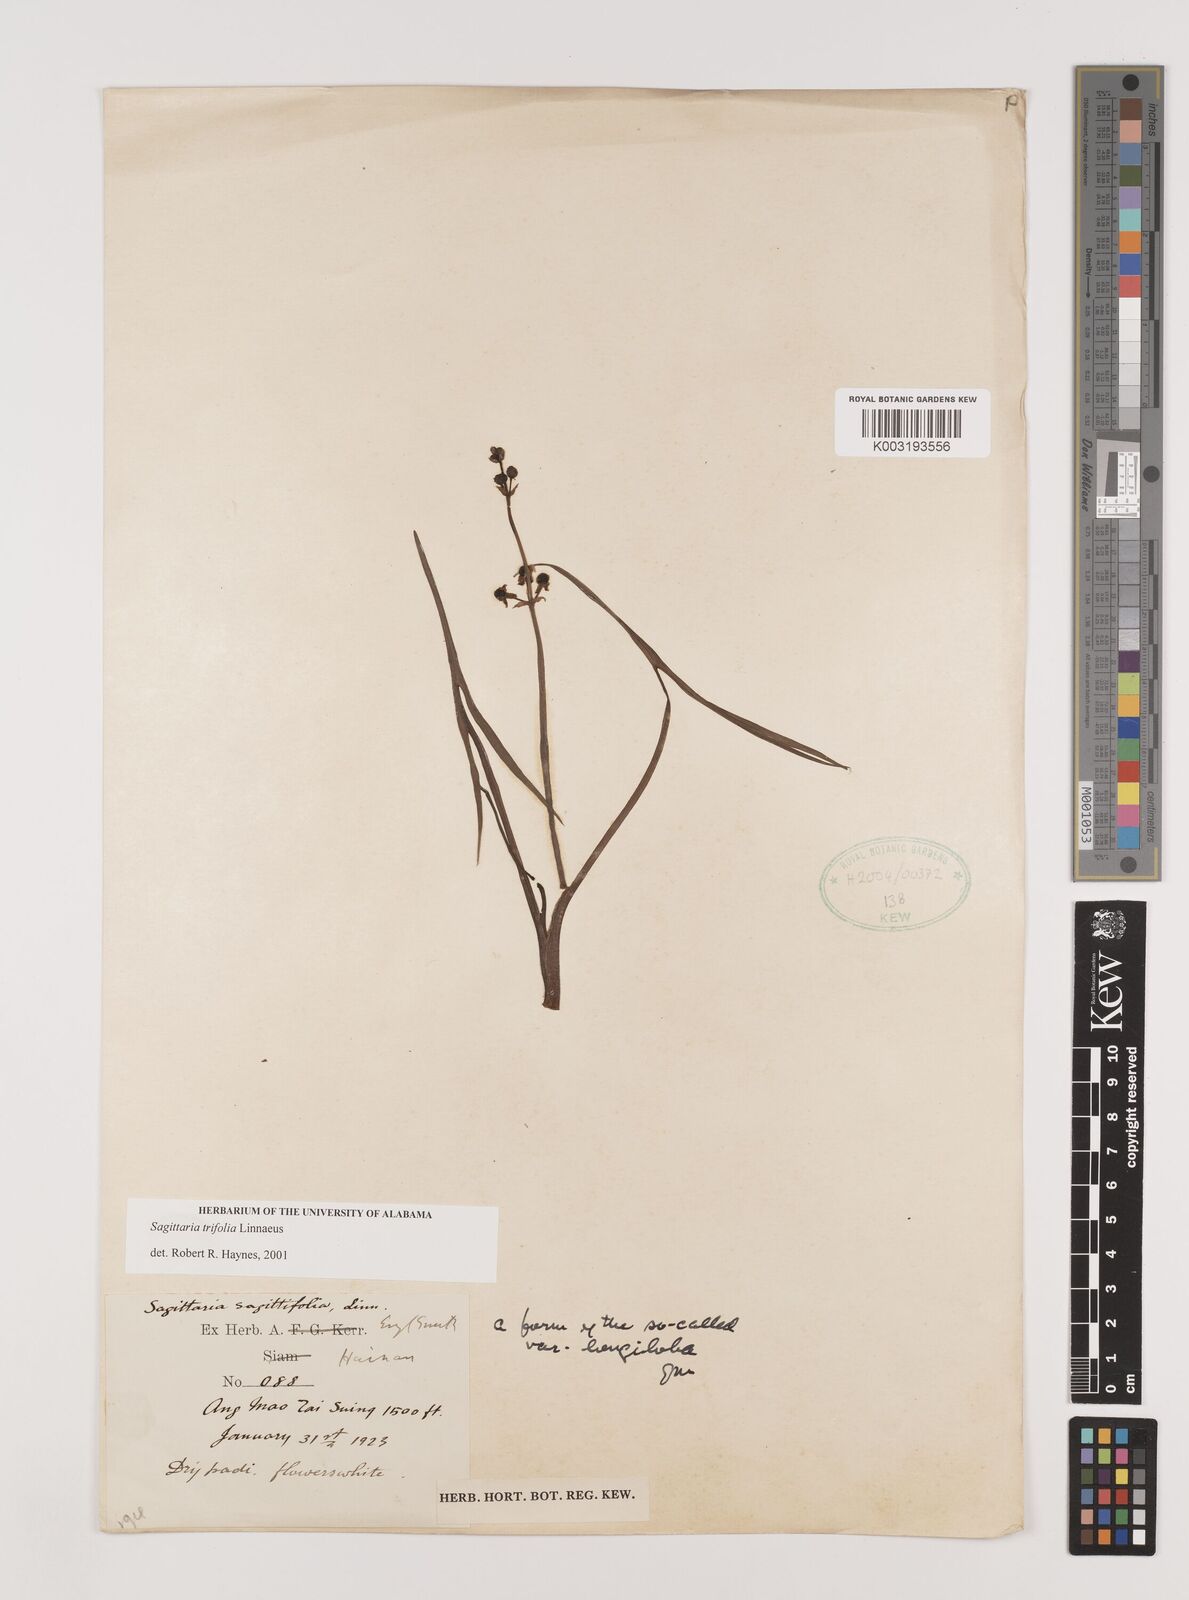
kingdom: Plantae
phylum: Tracheophyta
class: Liliopsida
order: Alismatales
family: Alismataceae
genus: Sagittaria
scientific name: Sagittaria trifolia
